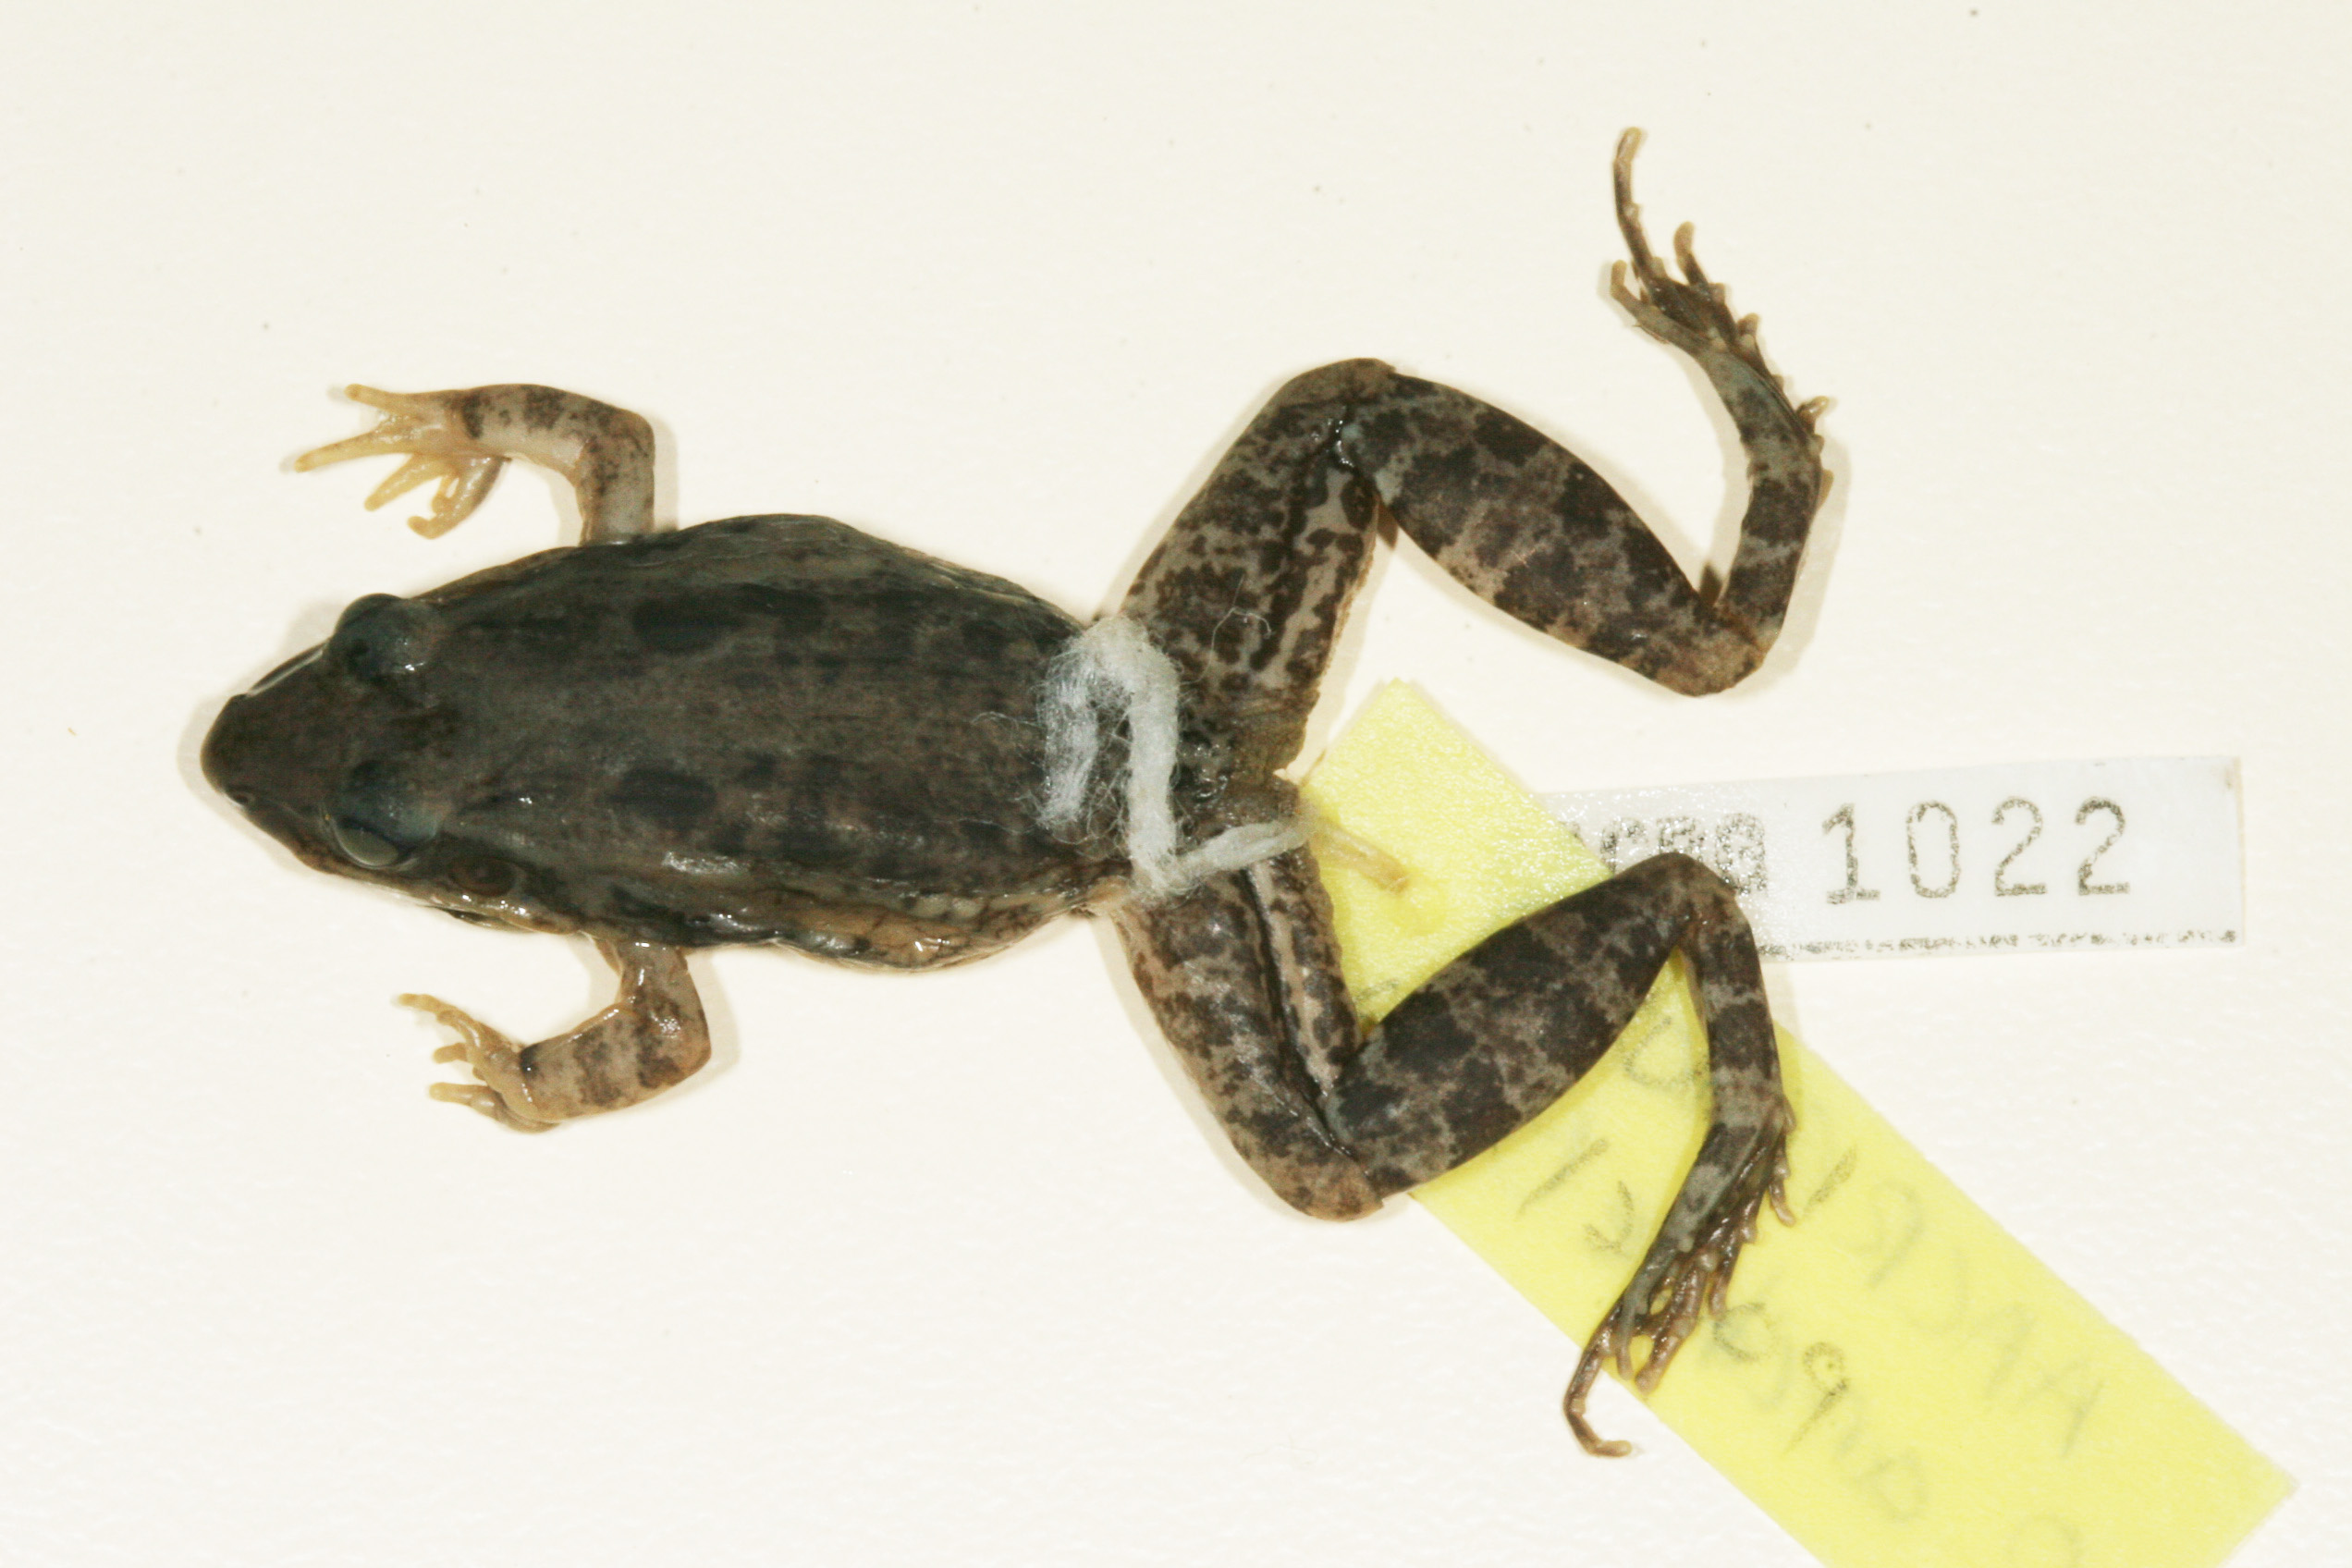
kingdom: Animalia
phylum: Chordata
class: Amphibia
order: Anura
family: Ptychadenidae
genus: Ptychadena
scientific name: Ptychadena anchietae
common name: Anchieta's ridged frog
